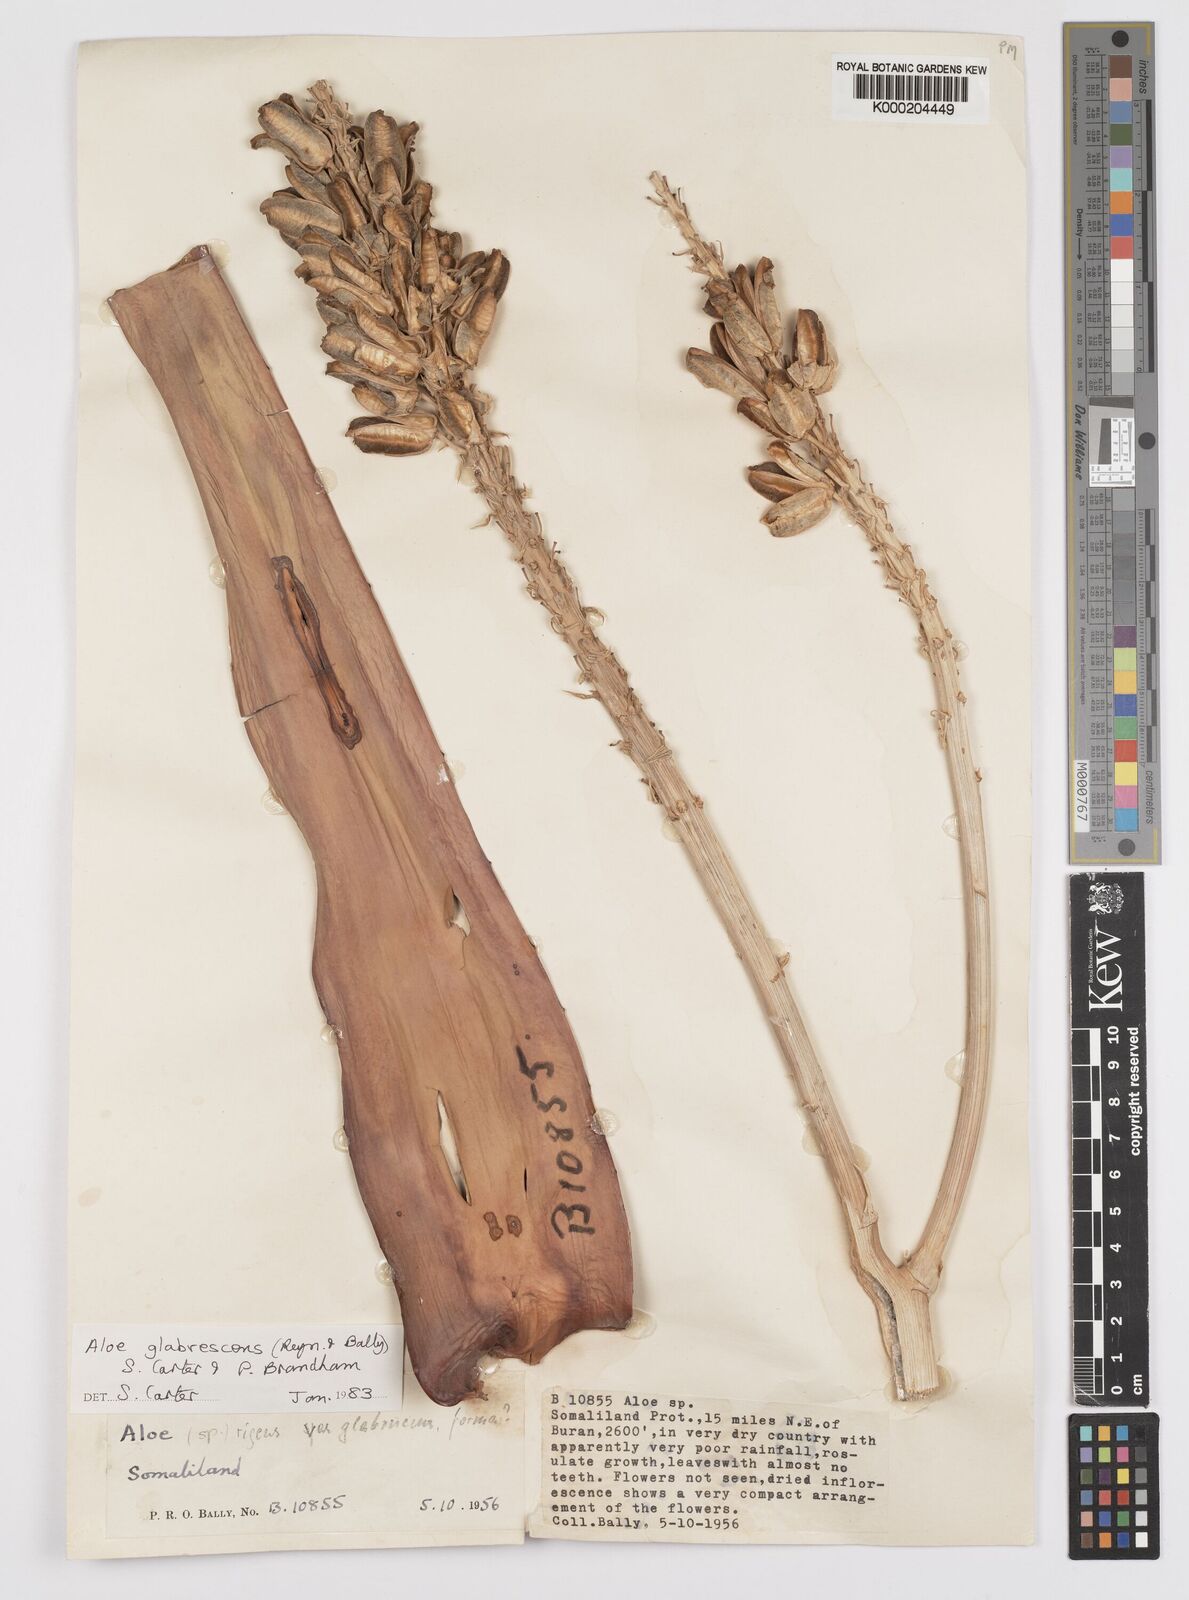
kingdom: Plantae
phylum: Tracheophyta
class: Liliopsida
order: Asparagales
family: Asphodelaceae
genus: Aloe
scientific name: Aloe glabrescens
